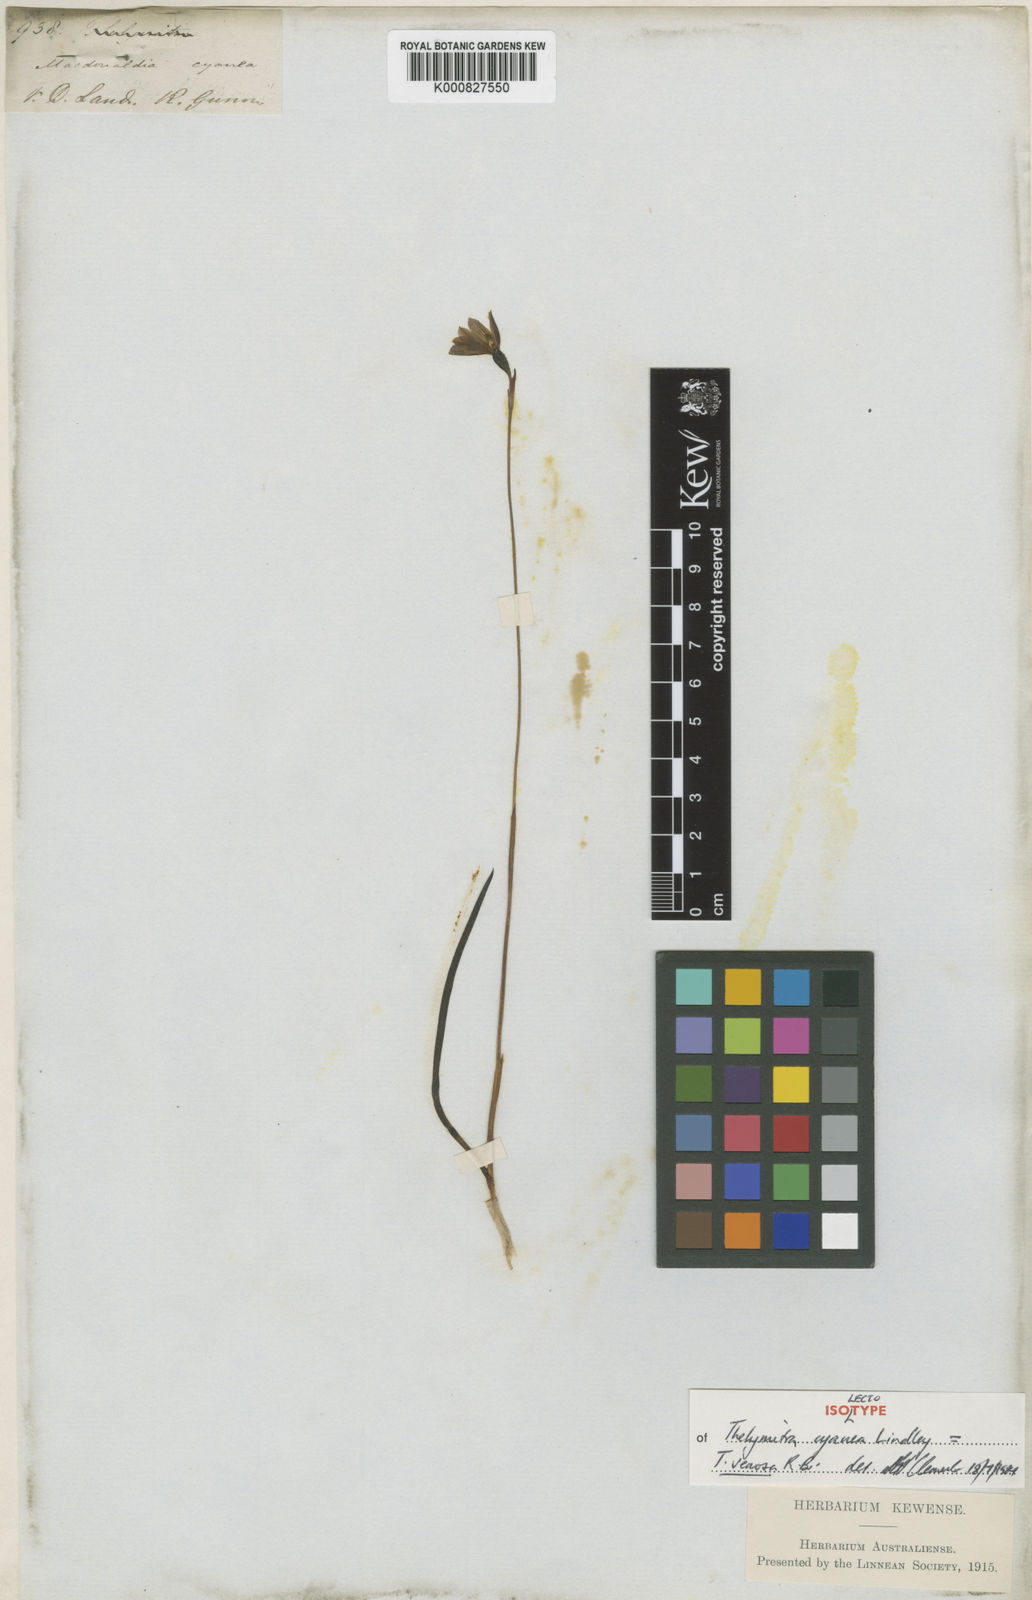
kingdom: Plantae
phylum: Tracheophyta
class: Liliopsida
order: Asparagales
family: Orchidaceae
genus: Thelymitra
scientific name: Thelymitra venosa
